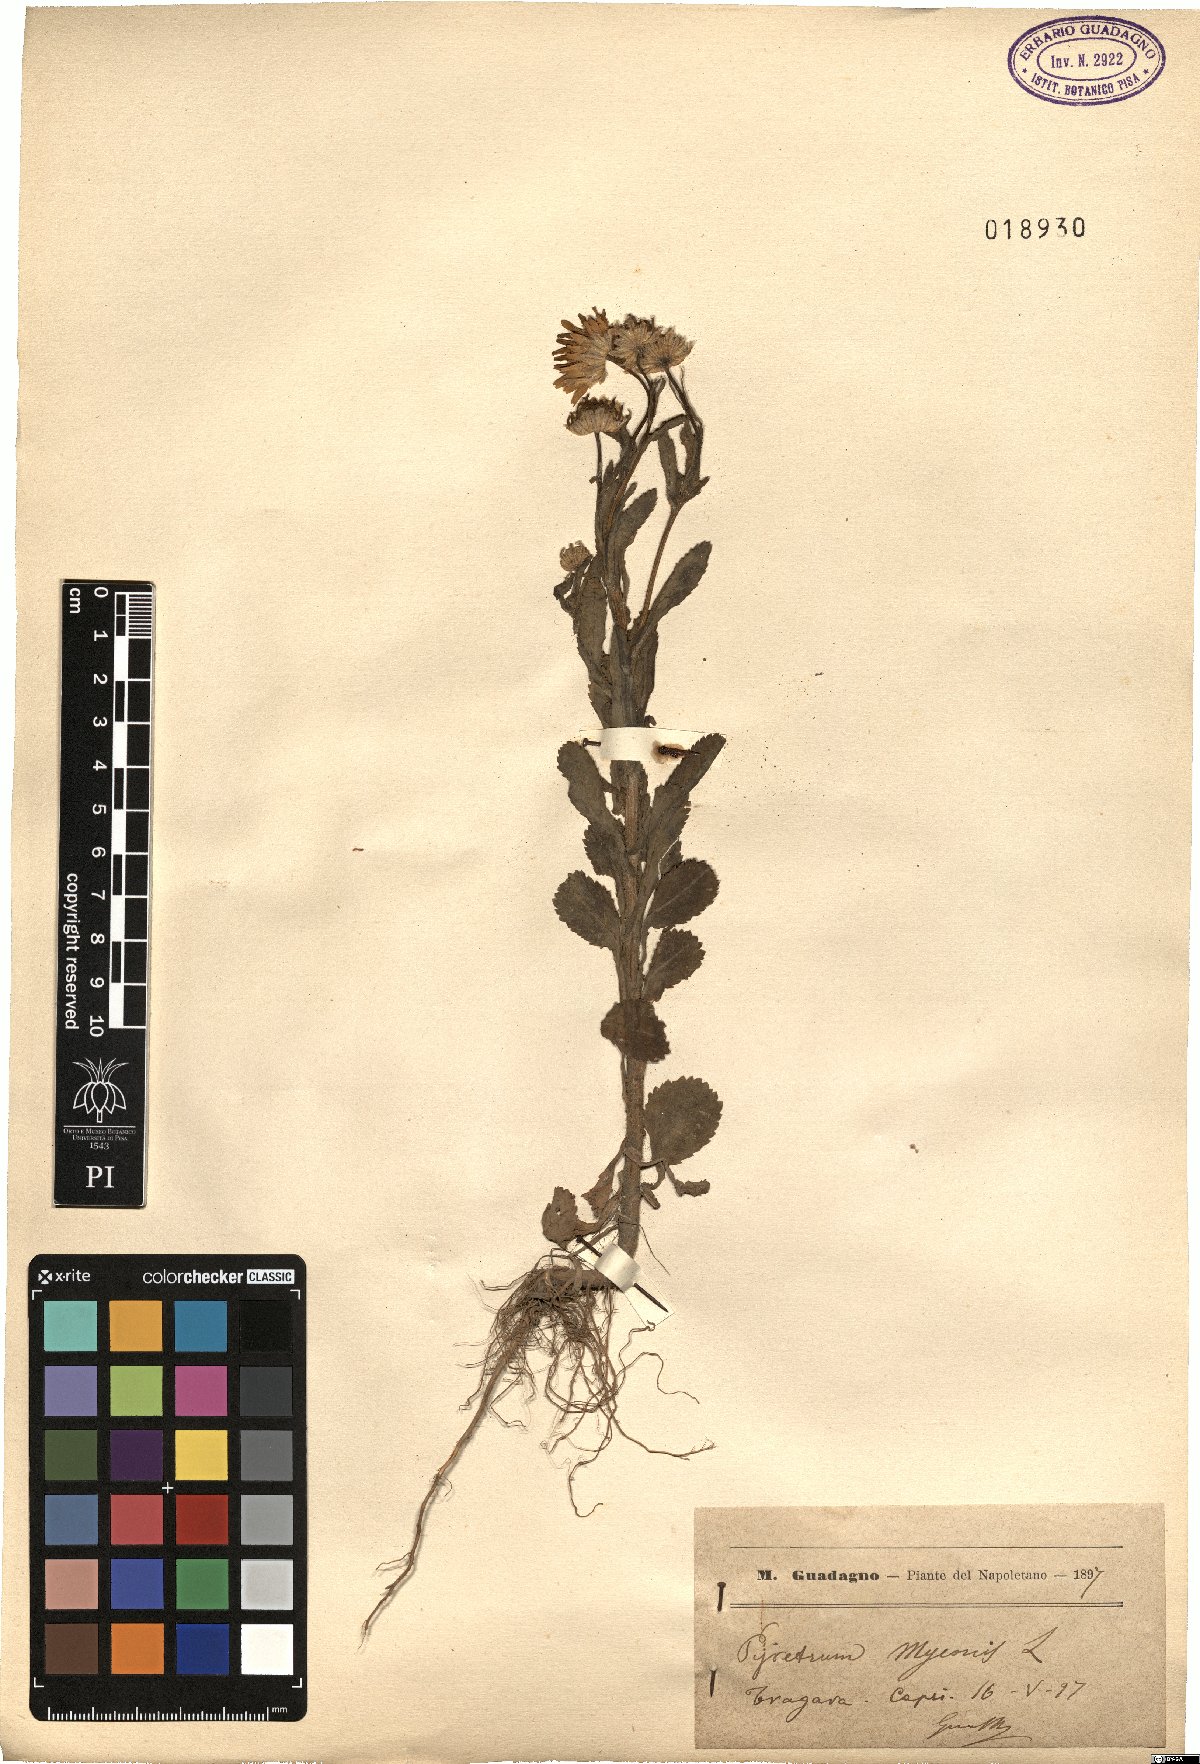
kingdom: Plantae
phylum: Tracheophyta
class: Magnoliopsida
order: Asterales
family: Asteraceae
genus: Coleostephus
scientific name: Coleostephus myconis
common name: Mediterranean marigold
